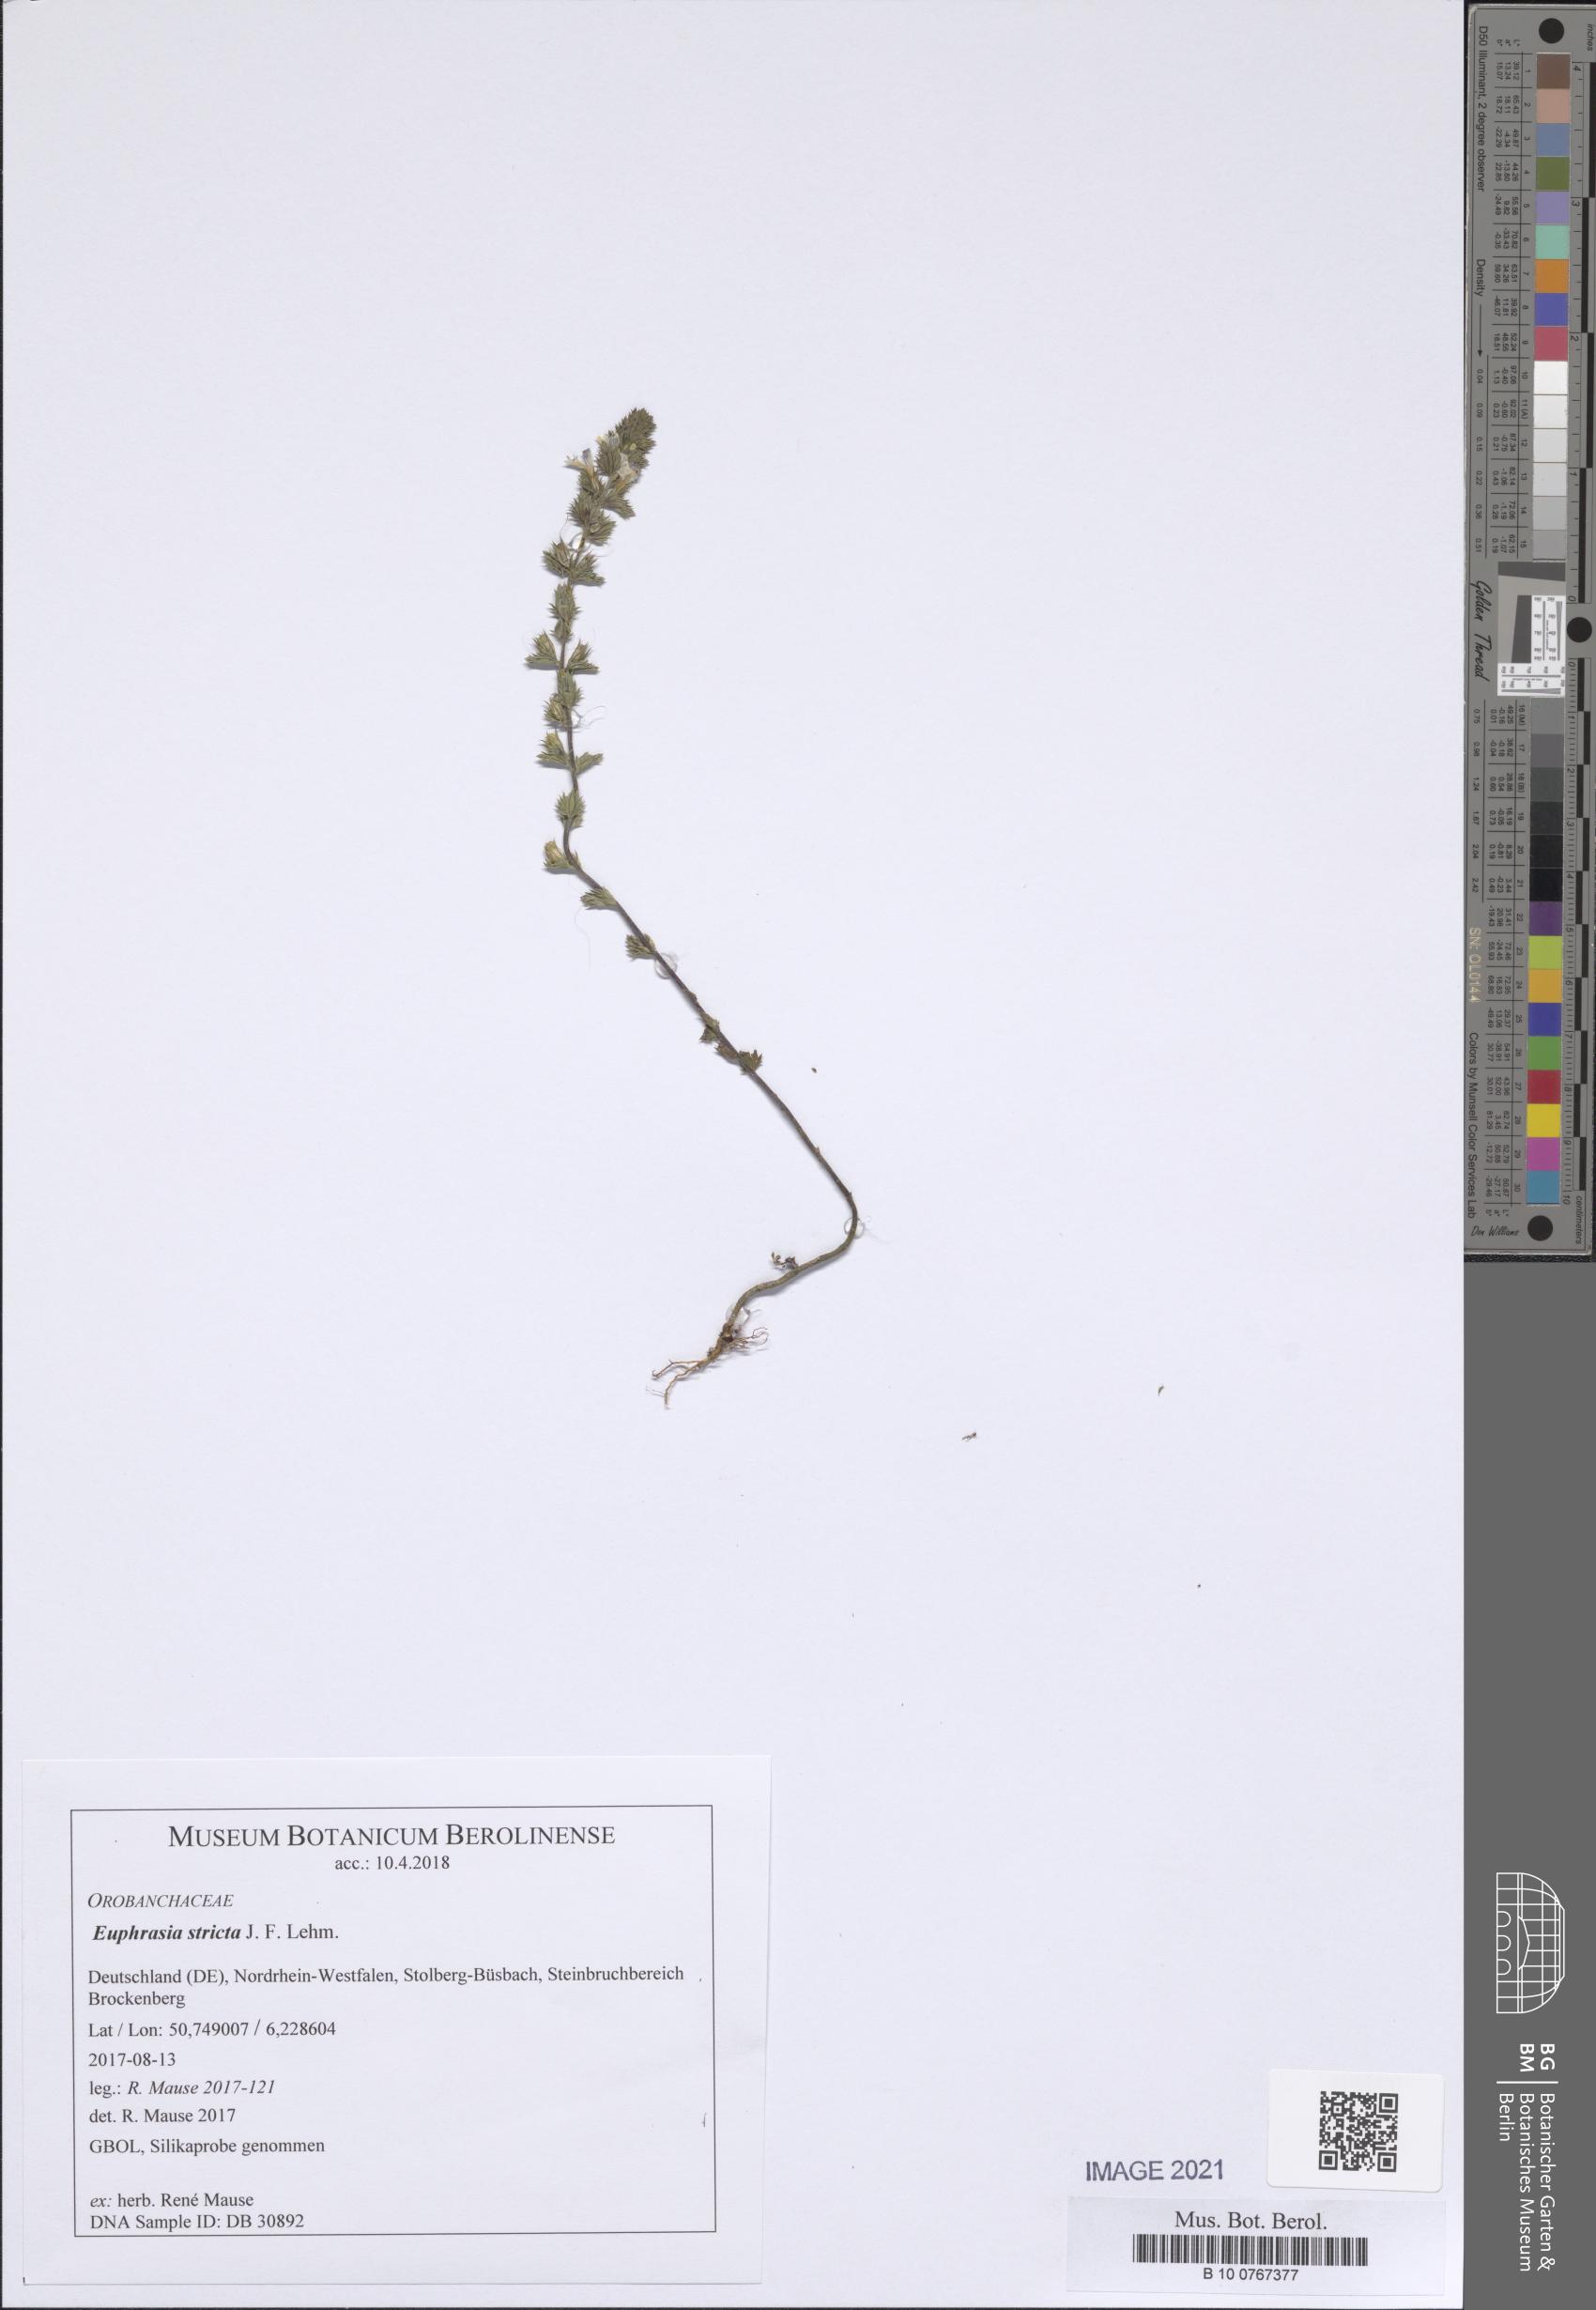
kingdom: Plantae
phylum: Tracheophyta
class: Magnoliopsida
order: Lamiales
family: Orobanchaceae
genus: Euphrasia
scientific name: Euphrasia stricta
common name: Drug eyebright
